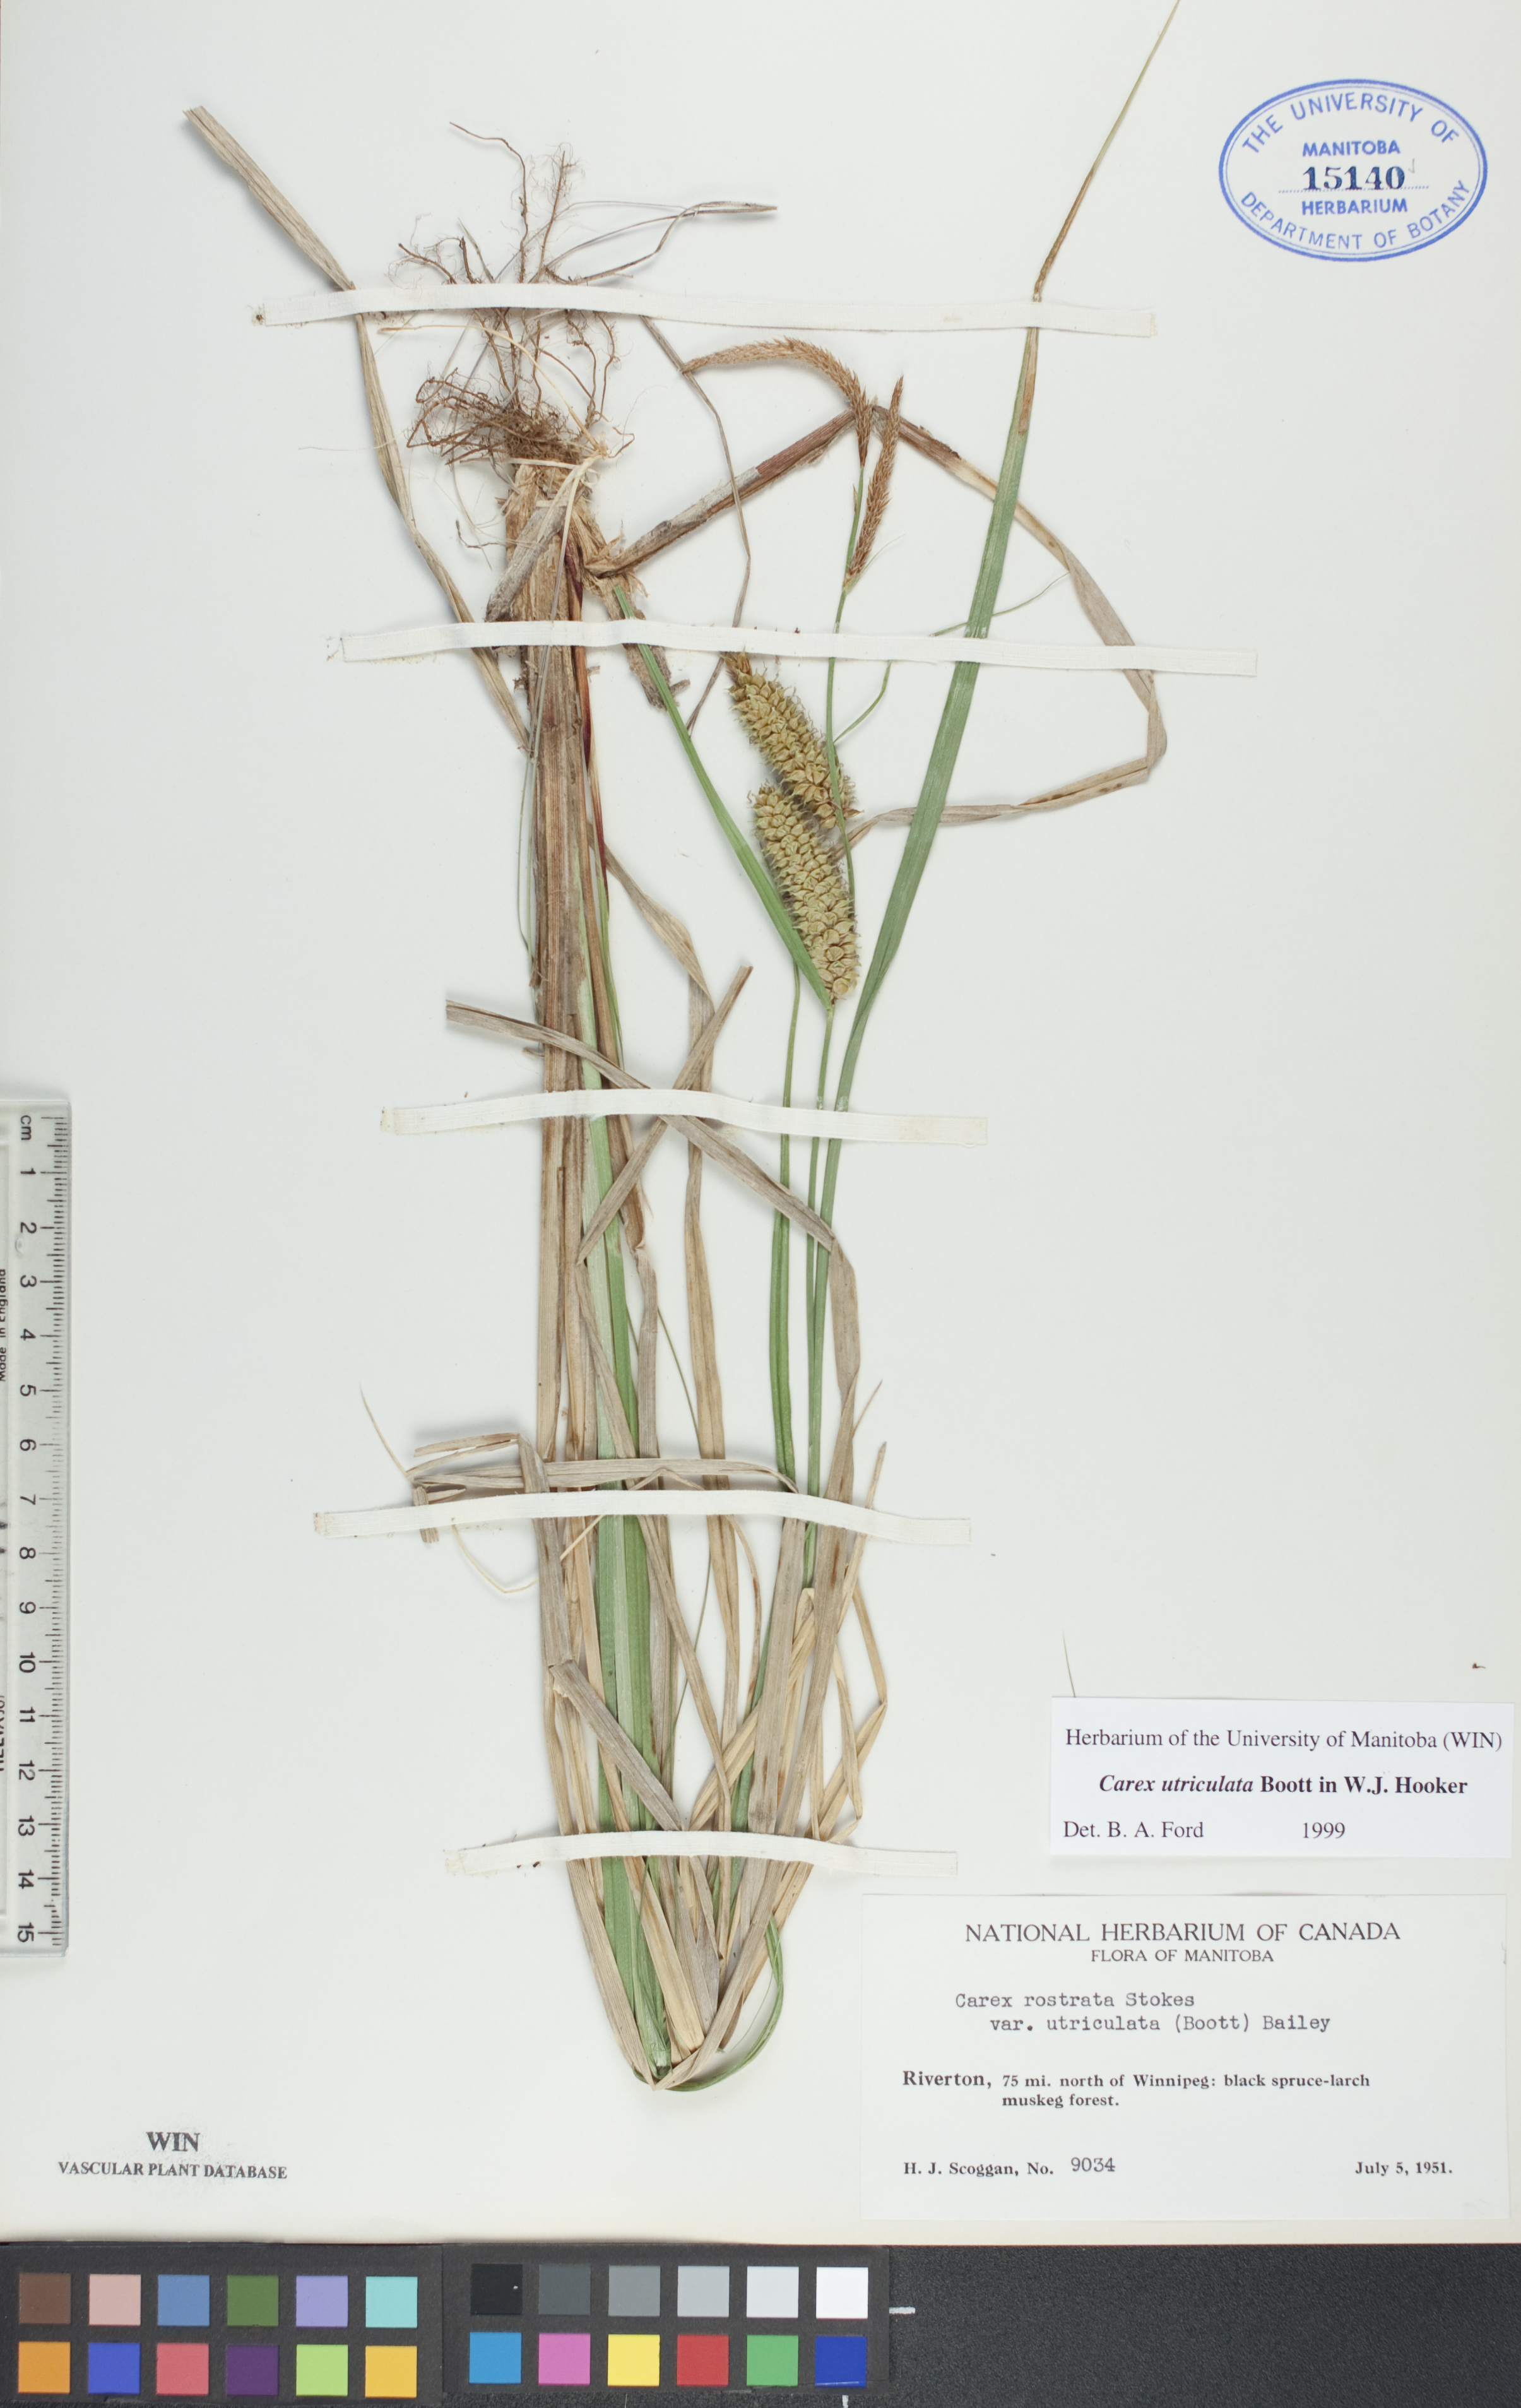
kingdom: Plantae
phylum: Tracheophyta
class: Liliopsida
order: Poales
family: Cyperaceae
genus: Carex
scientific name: Carex utriculata
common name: Beaked sedge
